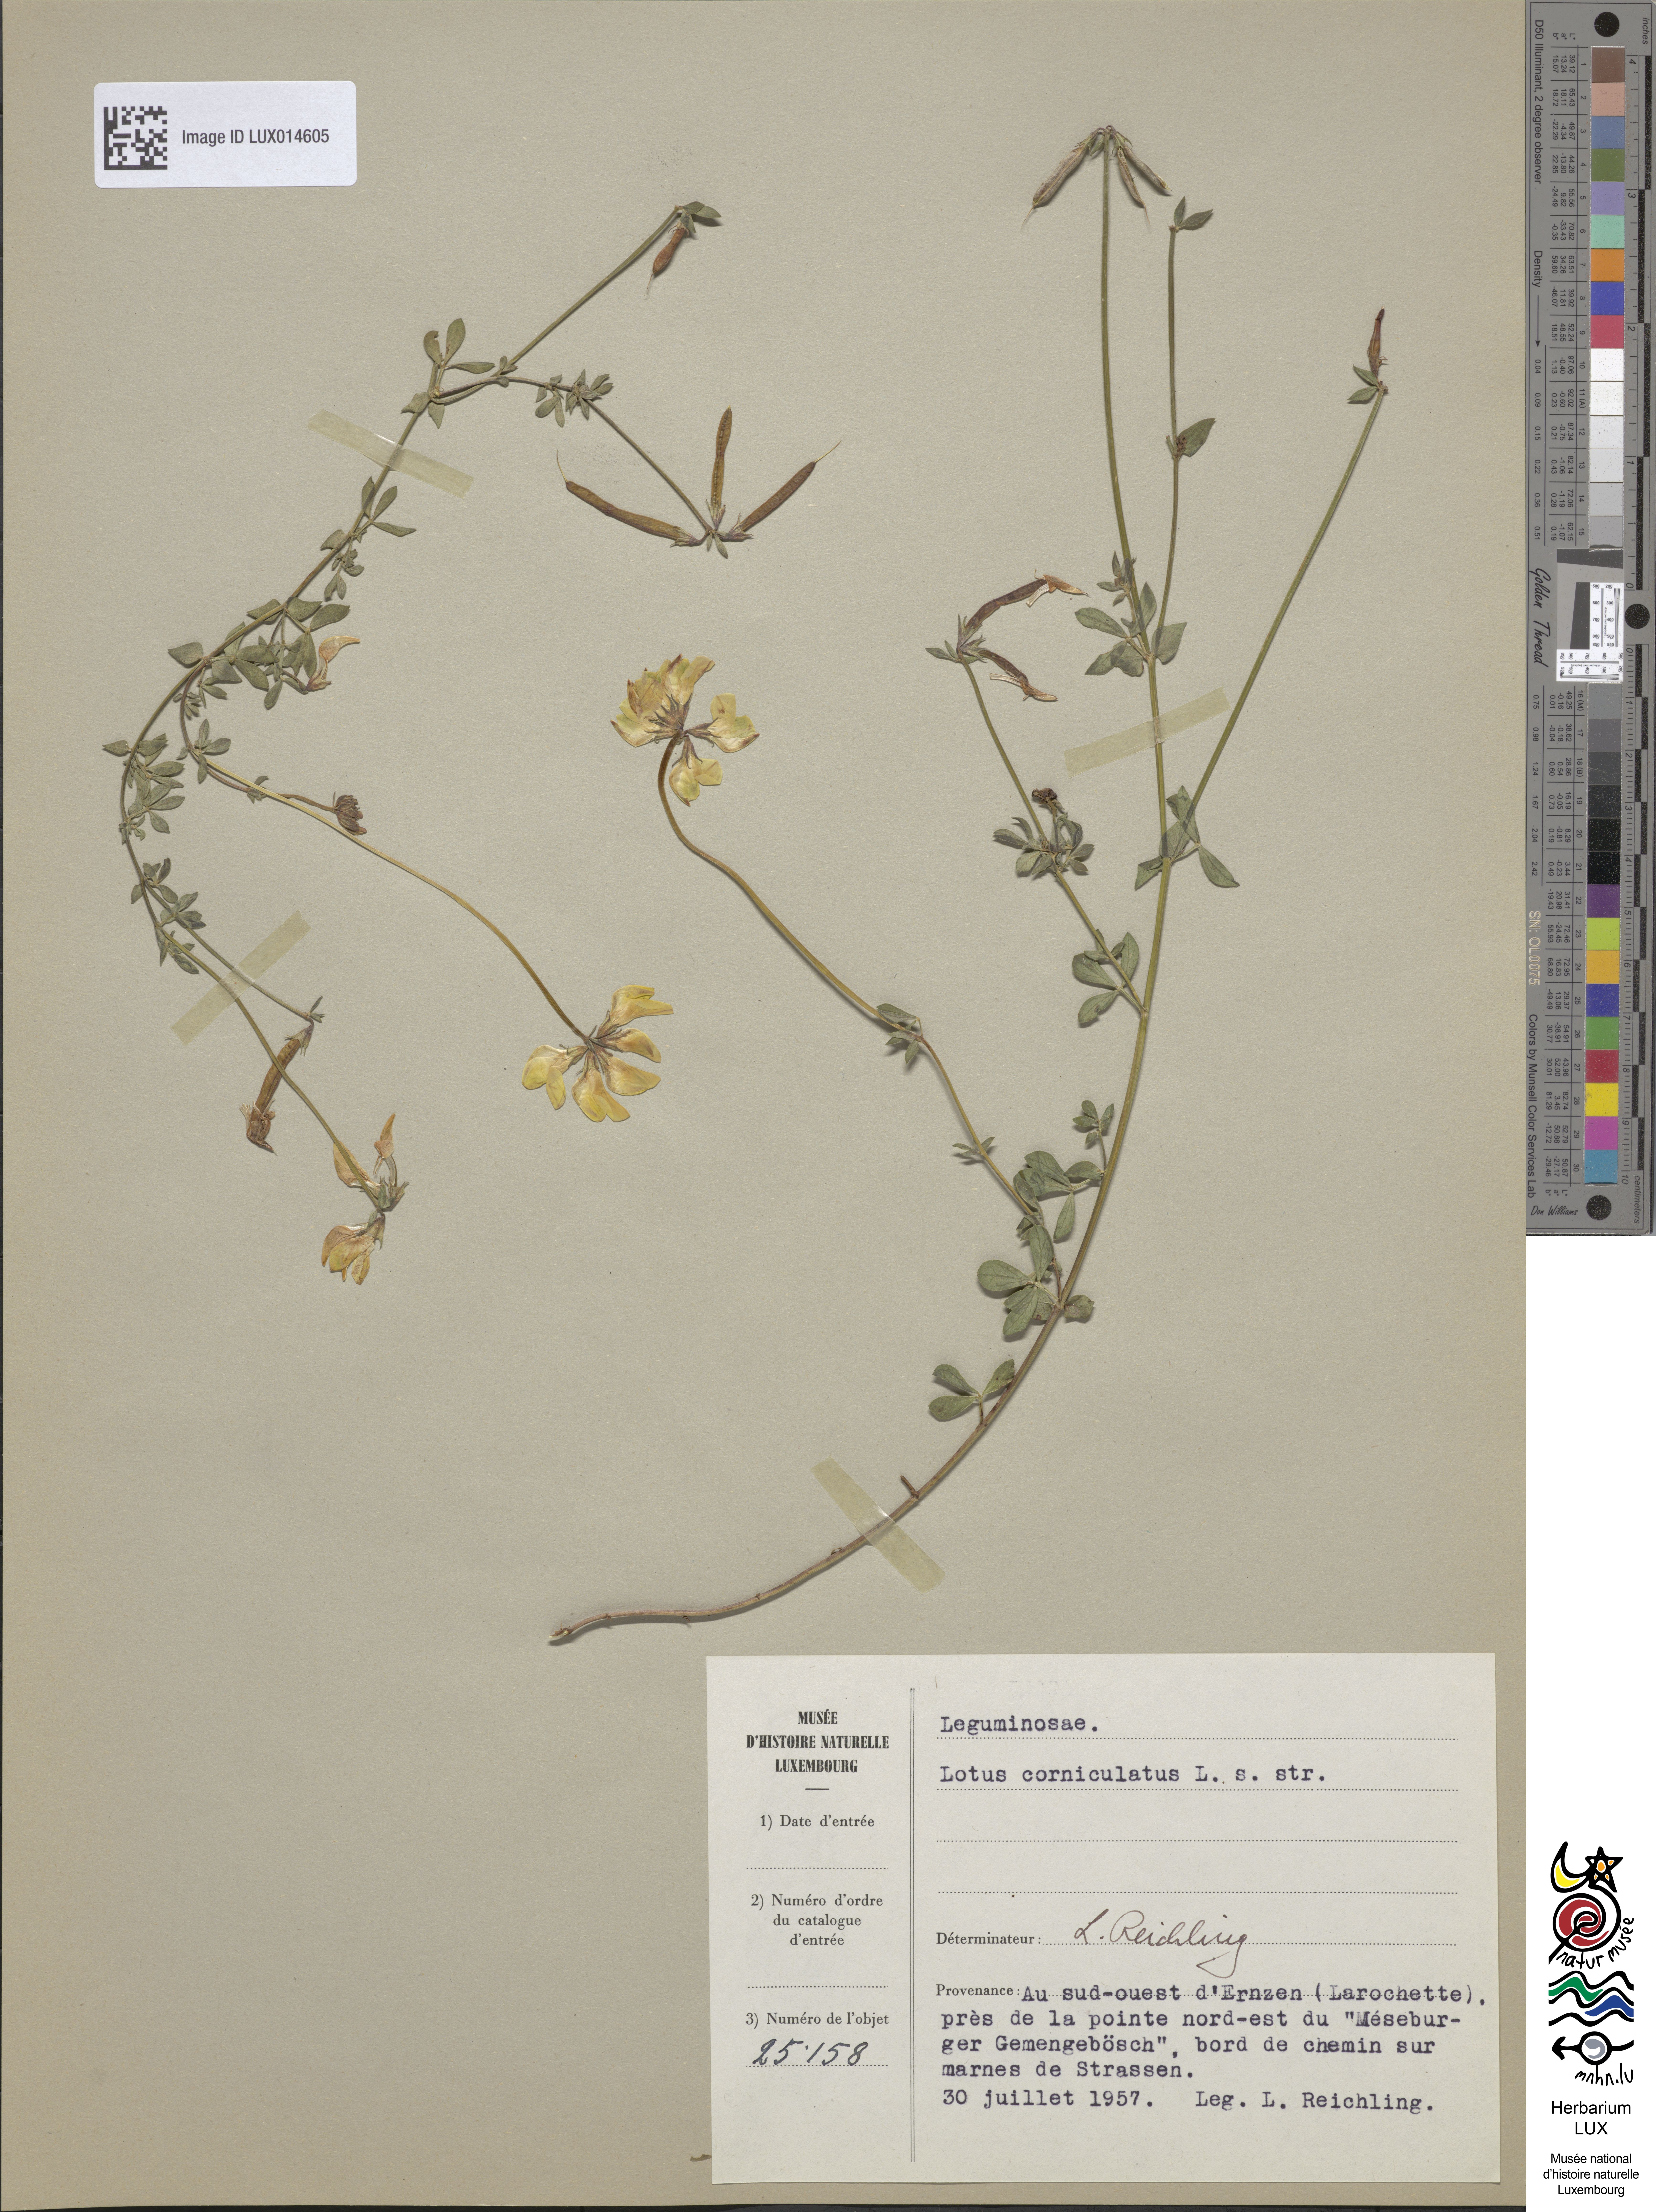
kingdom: Plantae
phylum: Tracheophyta
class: Magnoliopsida
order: Fabales
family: Fabaceae
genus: Lotus
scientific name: Lotus corniculatus
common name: Common bird's-foot-trefoil
